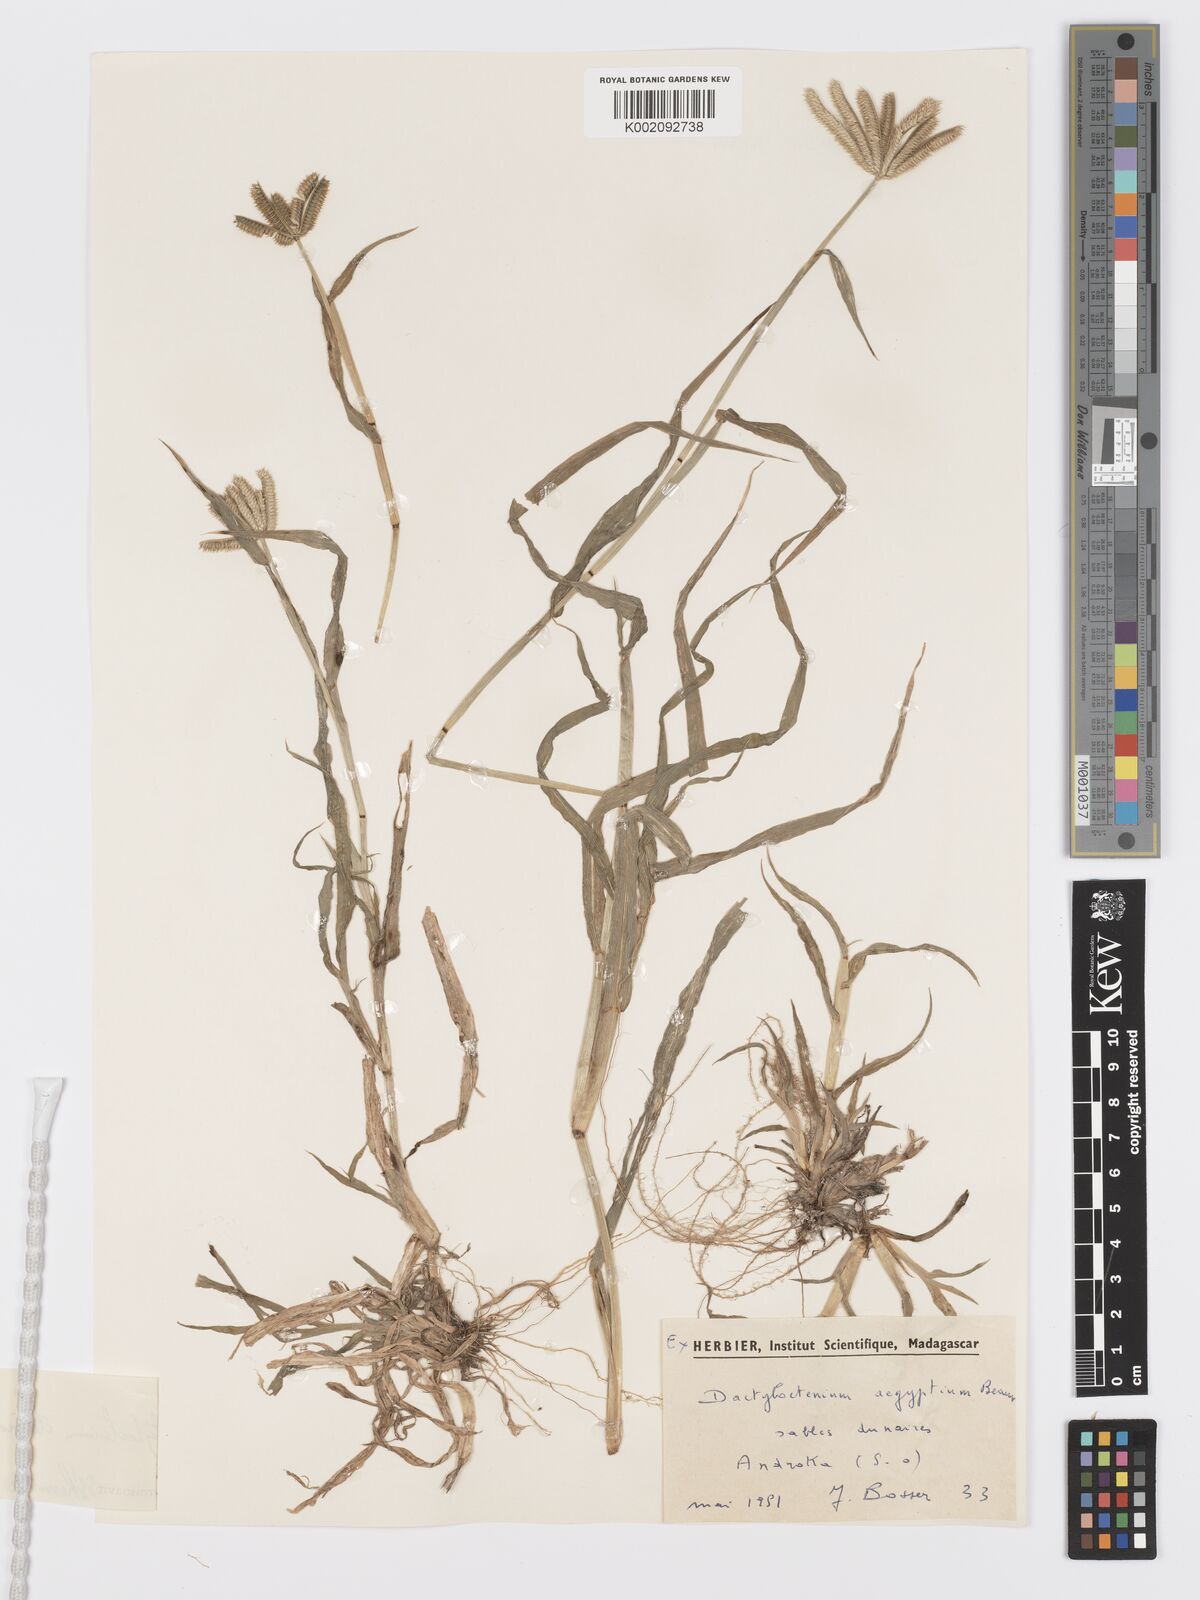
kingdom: Plantae
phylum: Tracheophyta
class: Liliopsida
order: Poales
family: Poaceae
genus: Dactyloctenium
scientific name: Dactyloctenium ctenoides
